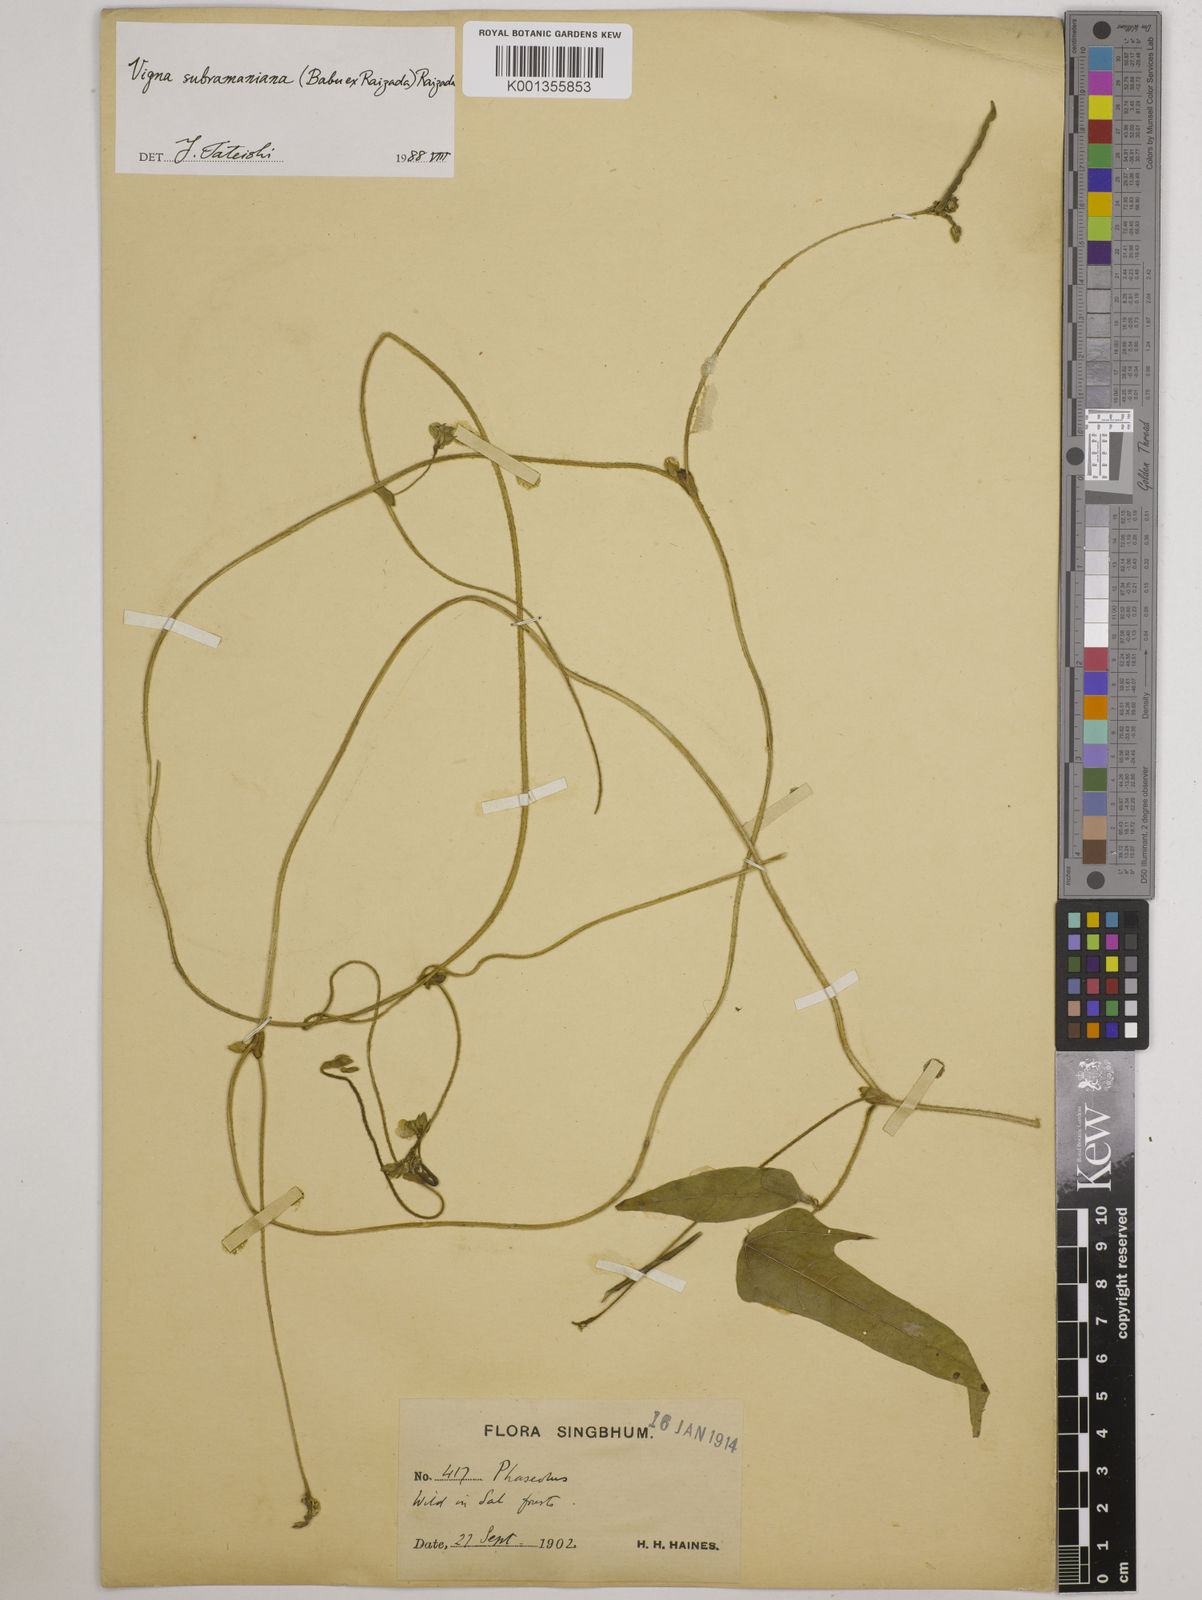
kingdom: Plantae
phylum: Tracheophyta
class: Magnoliopsida
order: Fabales
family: Fabaceae
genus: Vigna
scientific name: Vigna radiata
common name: Mung-bean
